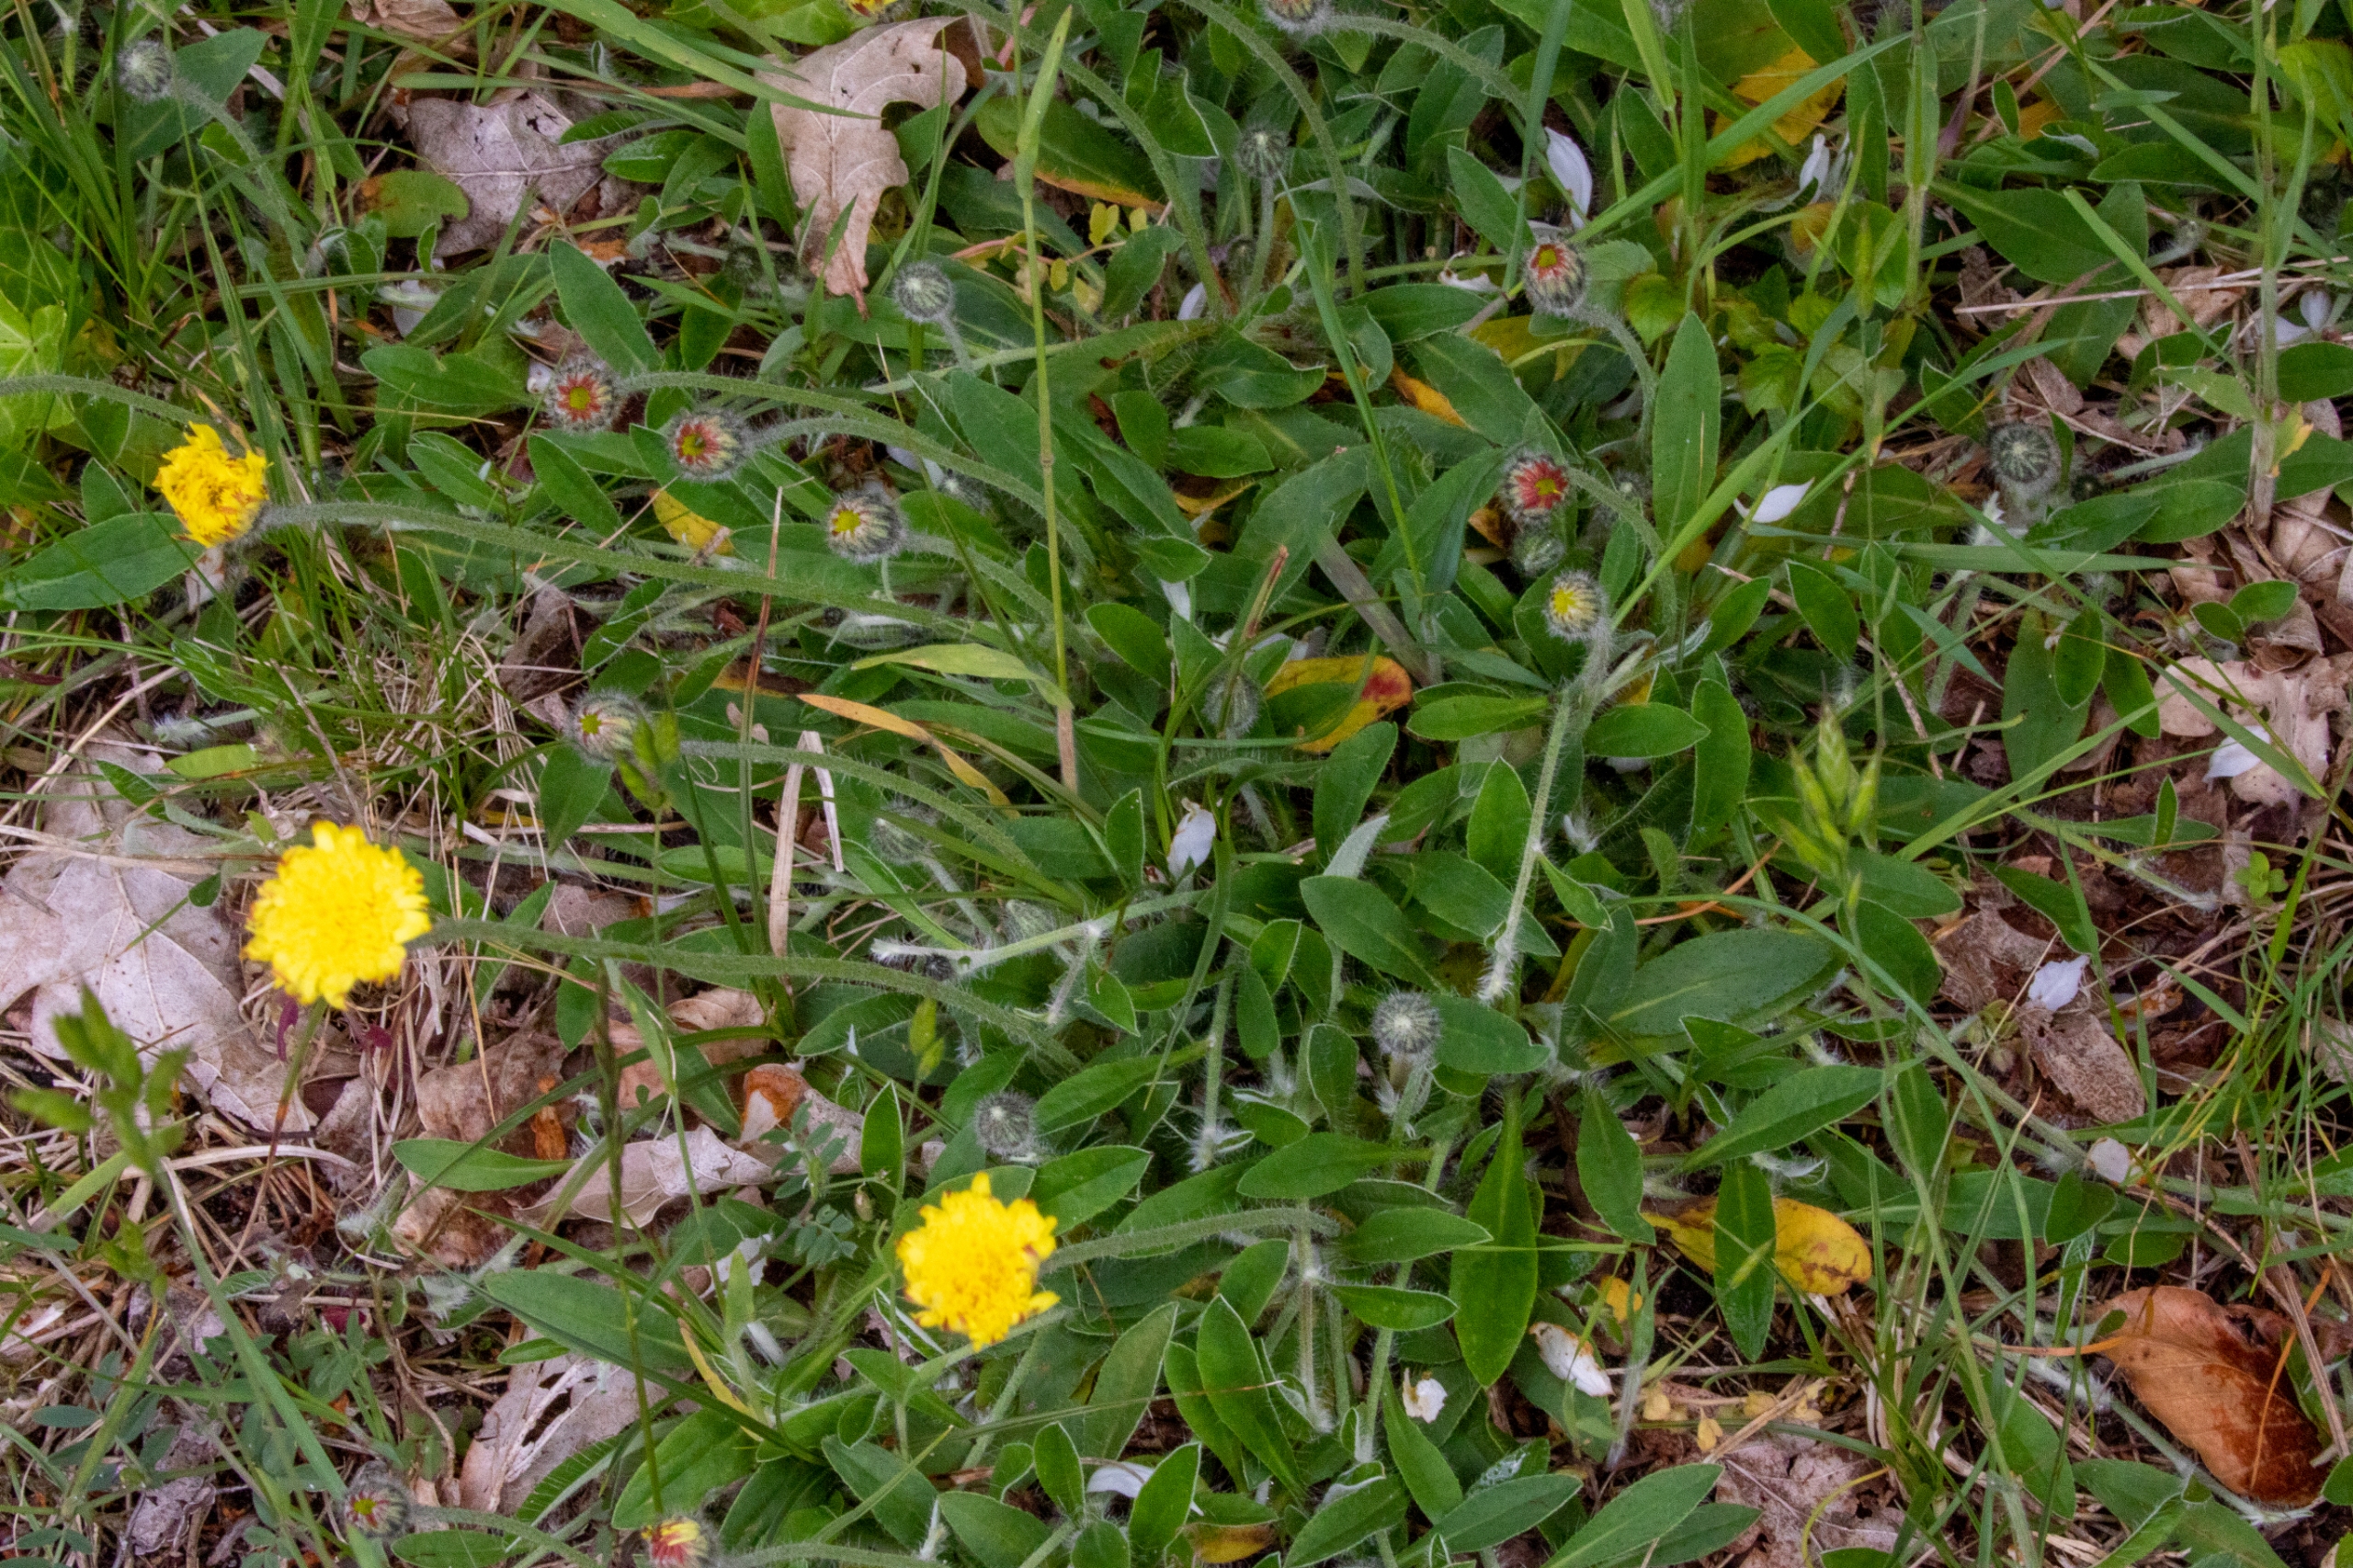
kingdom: Plantae
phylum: Tracheophyta
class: Magnoliopsida
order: Asterales
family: Asteraceae
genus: Pilosella
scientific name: Pilosella officinarum
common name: Håret høgeurt
